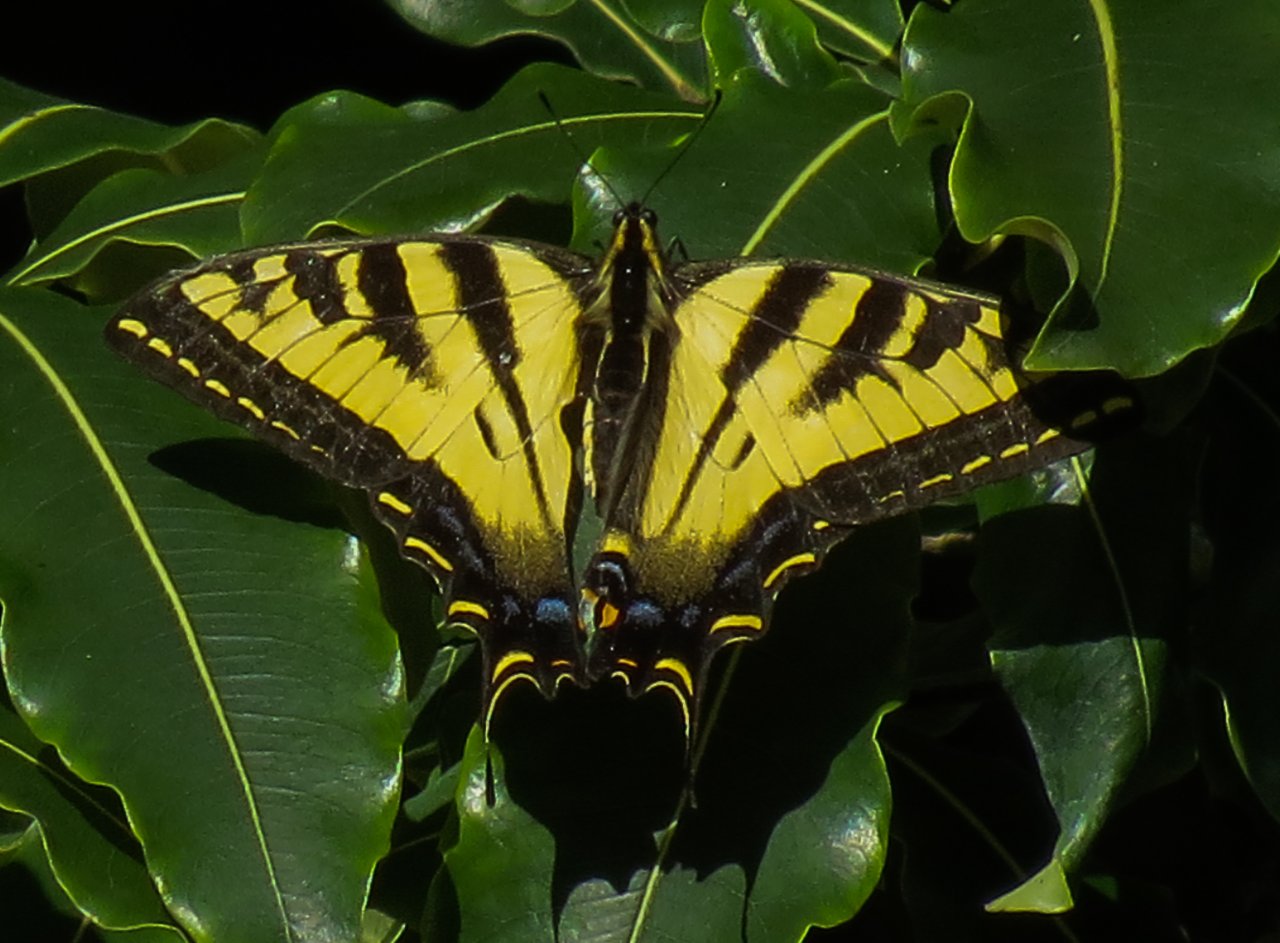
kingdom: Animalia
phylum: Arthropoda
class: Insecta
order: Lepidoptera
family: Papilionidae
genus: Pterourus
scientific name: Pterourus rutulus
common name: Western Tiger Swallowtail
